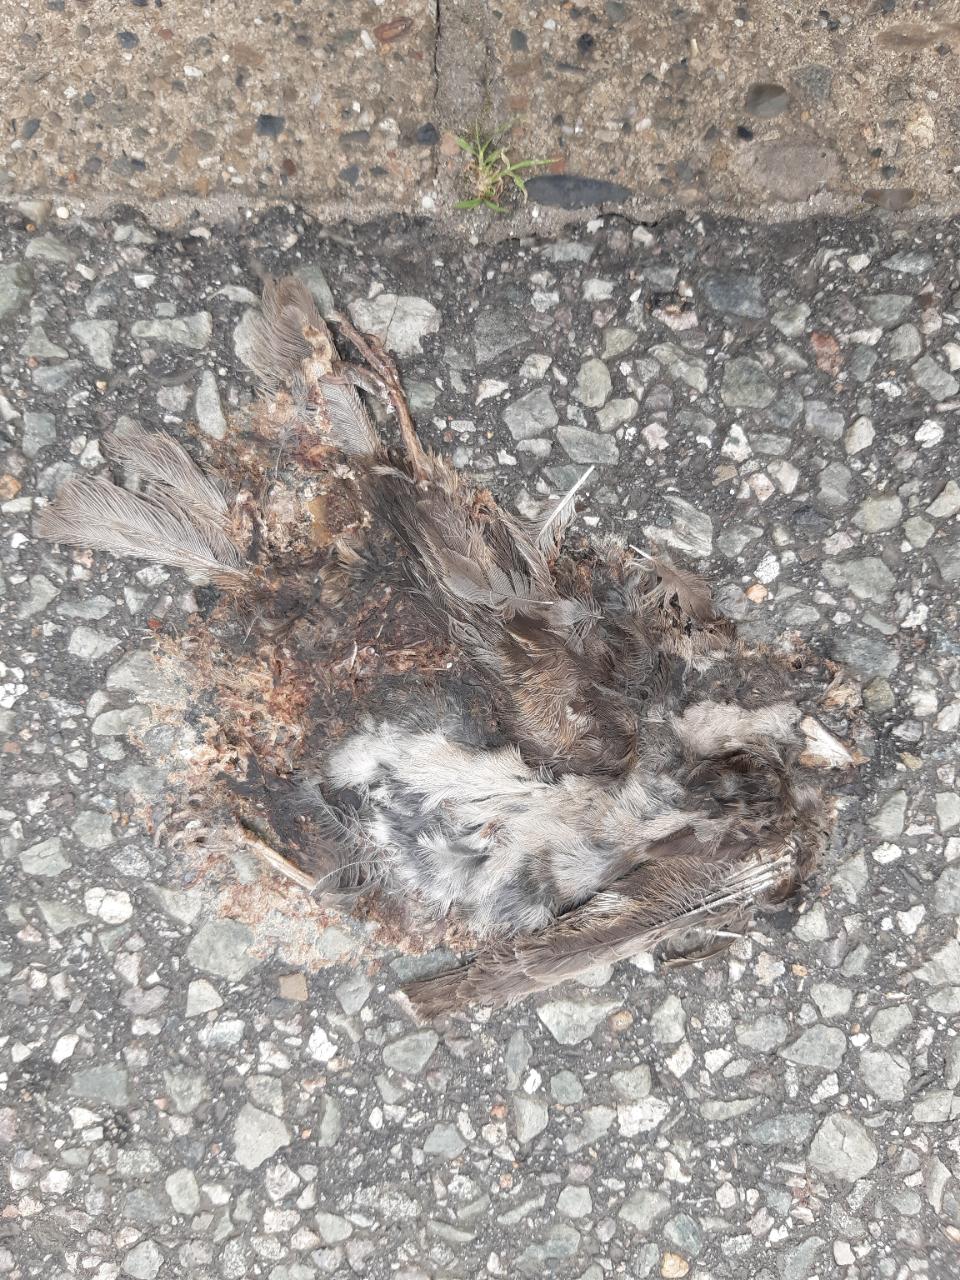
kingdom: Animalia
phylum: Chordata
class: Aves
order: Passeriformes
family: Passeridae
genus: Passer
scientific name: Passer domesticus
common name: House sparrow
